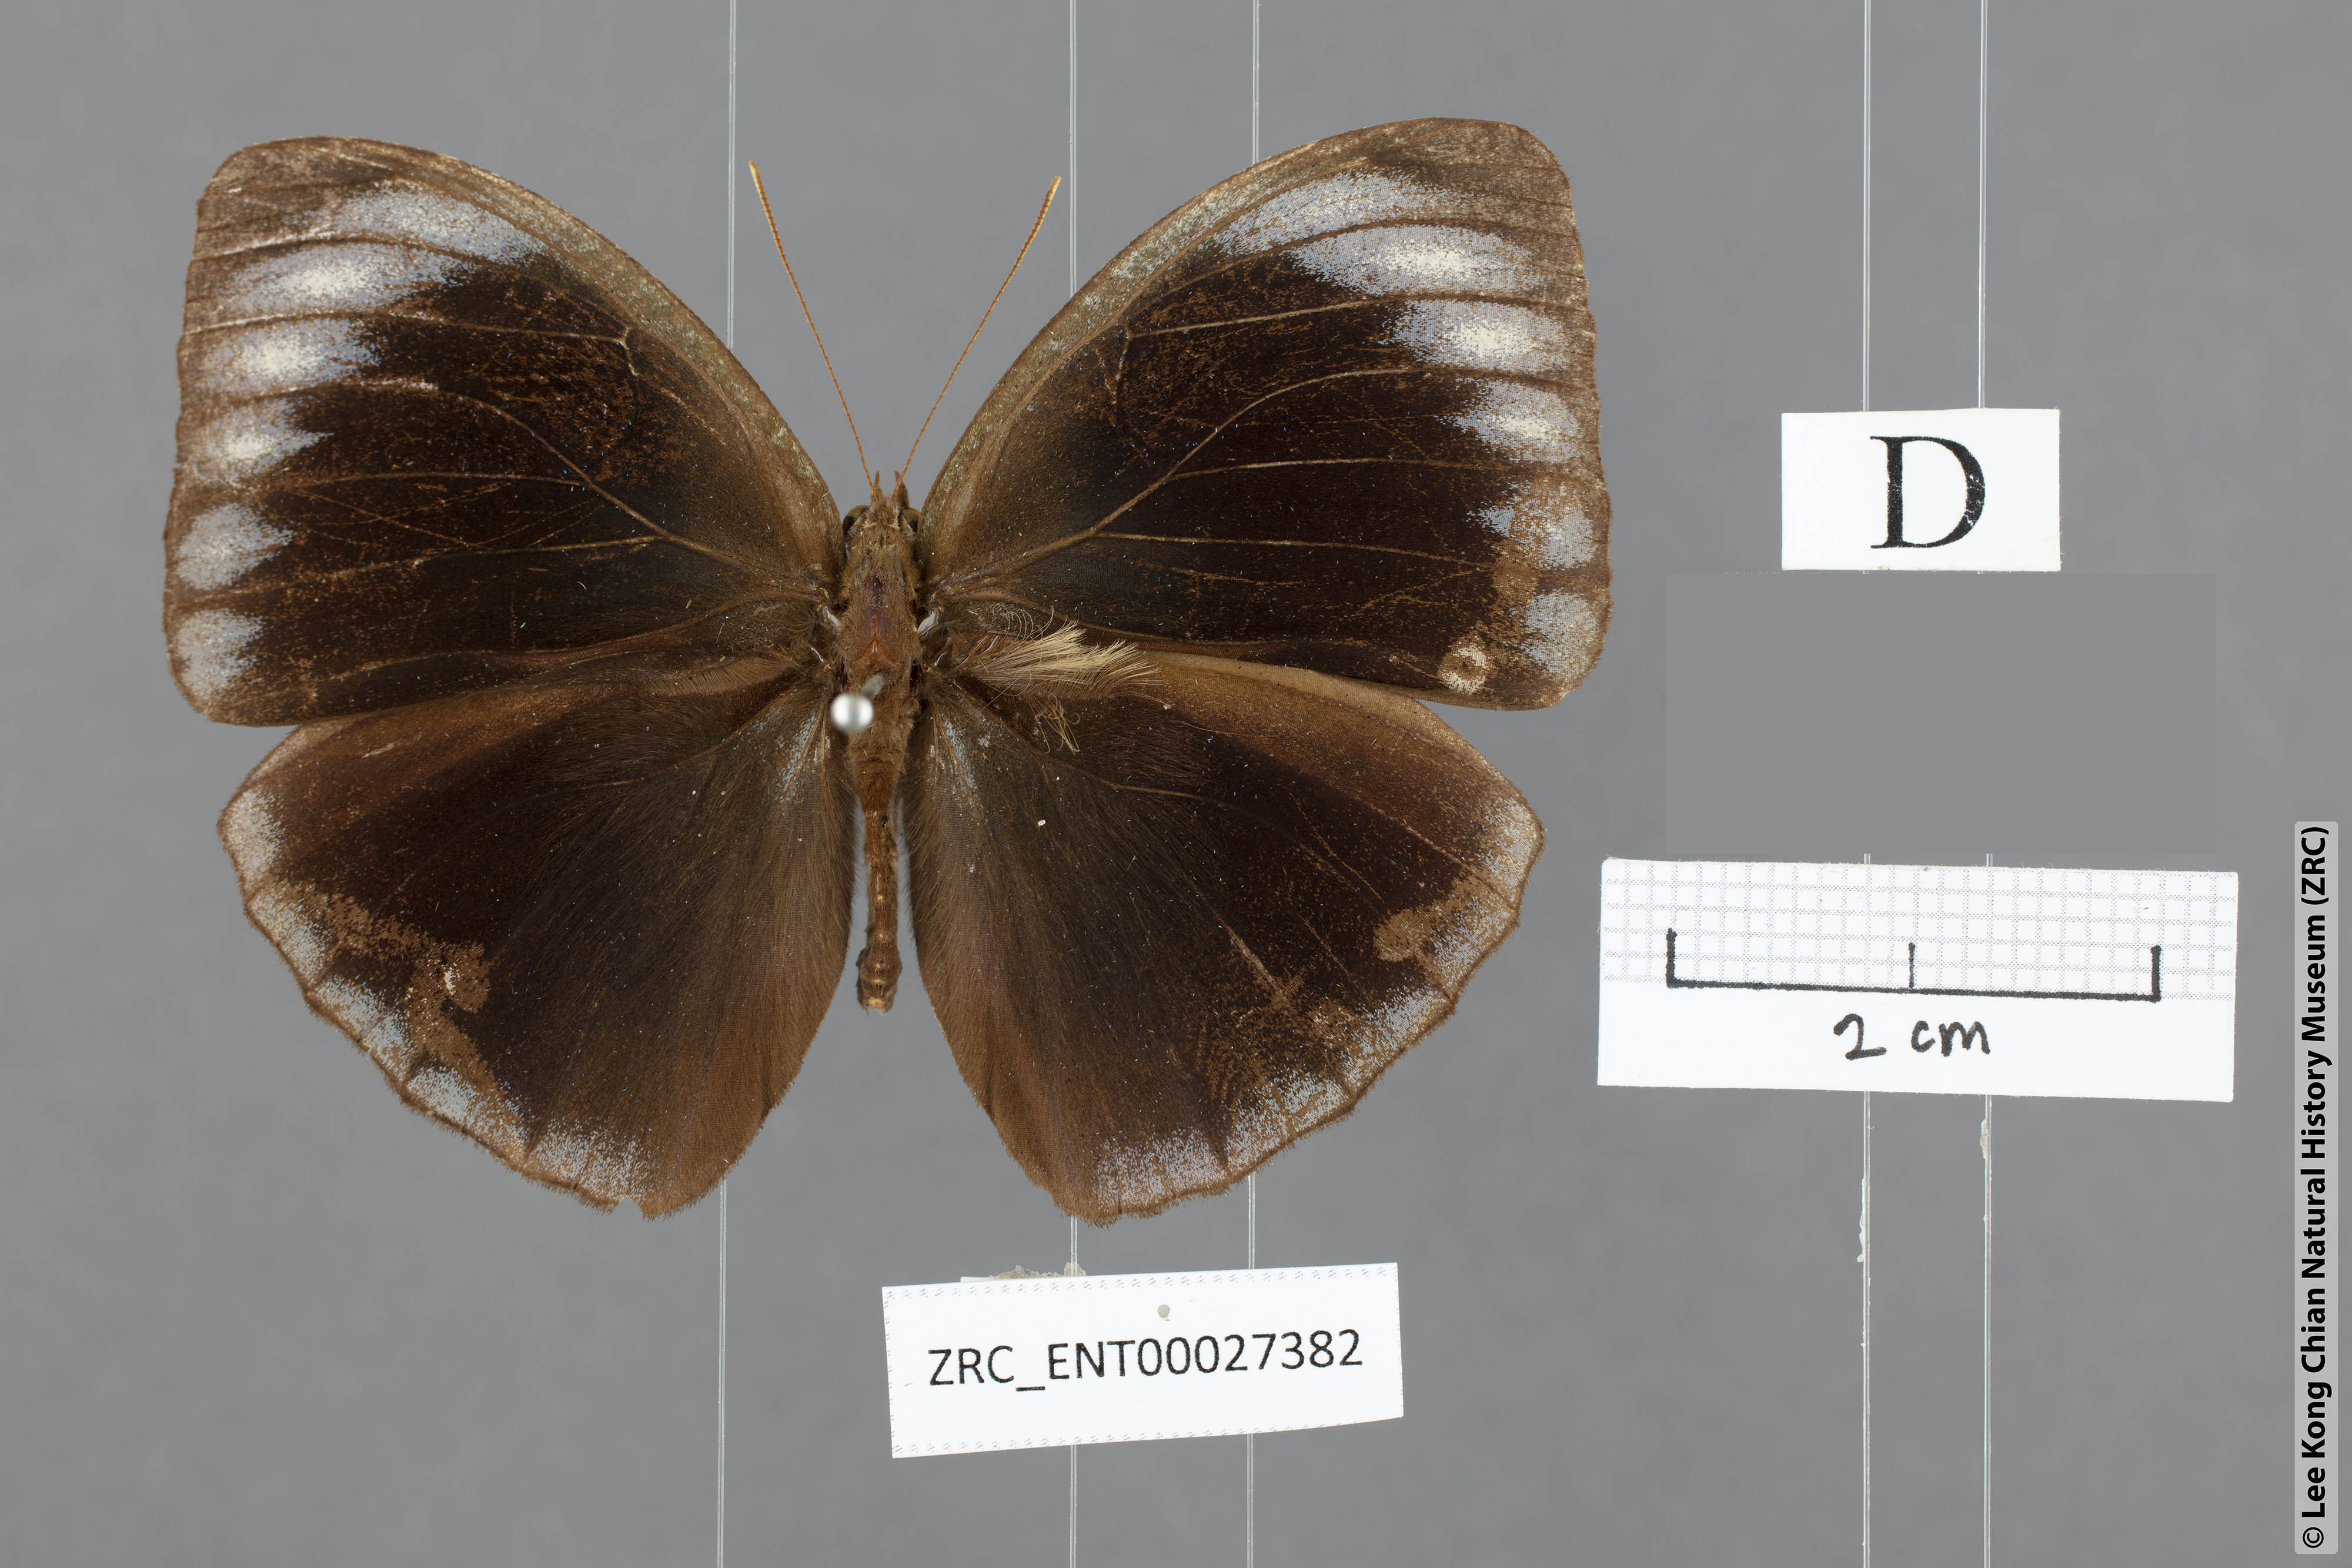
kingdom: Animalia
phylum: Arthropoda
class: Insecta
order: Lepidoptera
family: Nymphalidae
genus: Elymnias
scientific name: Elymnias esaca
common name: Green palmfly
